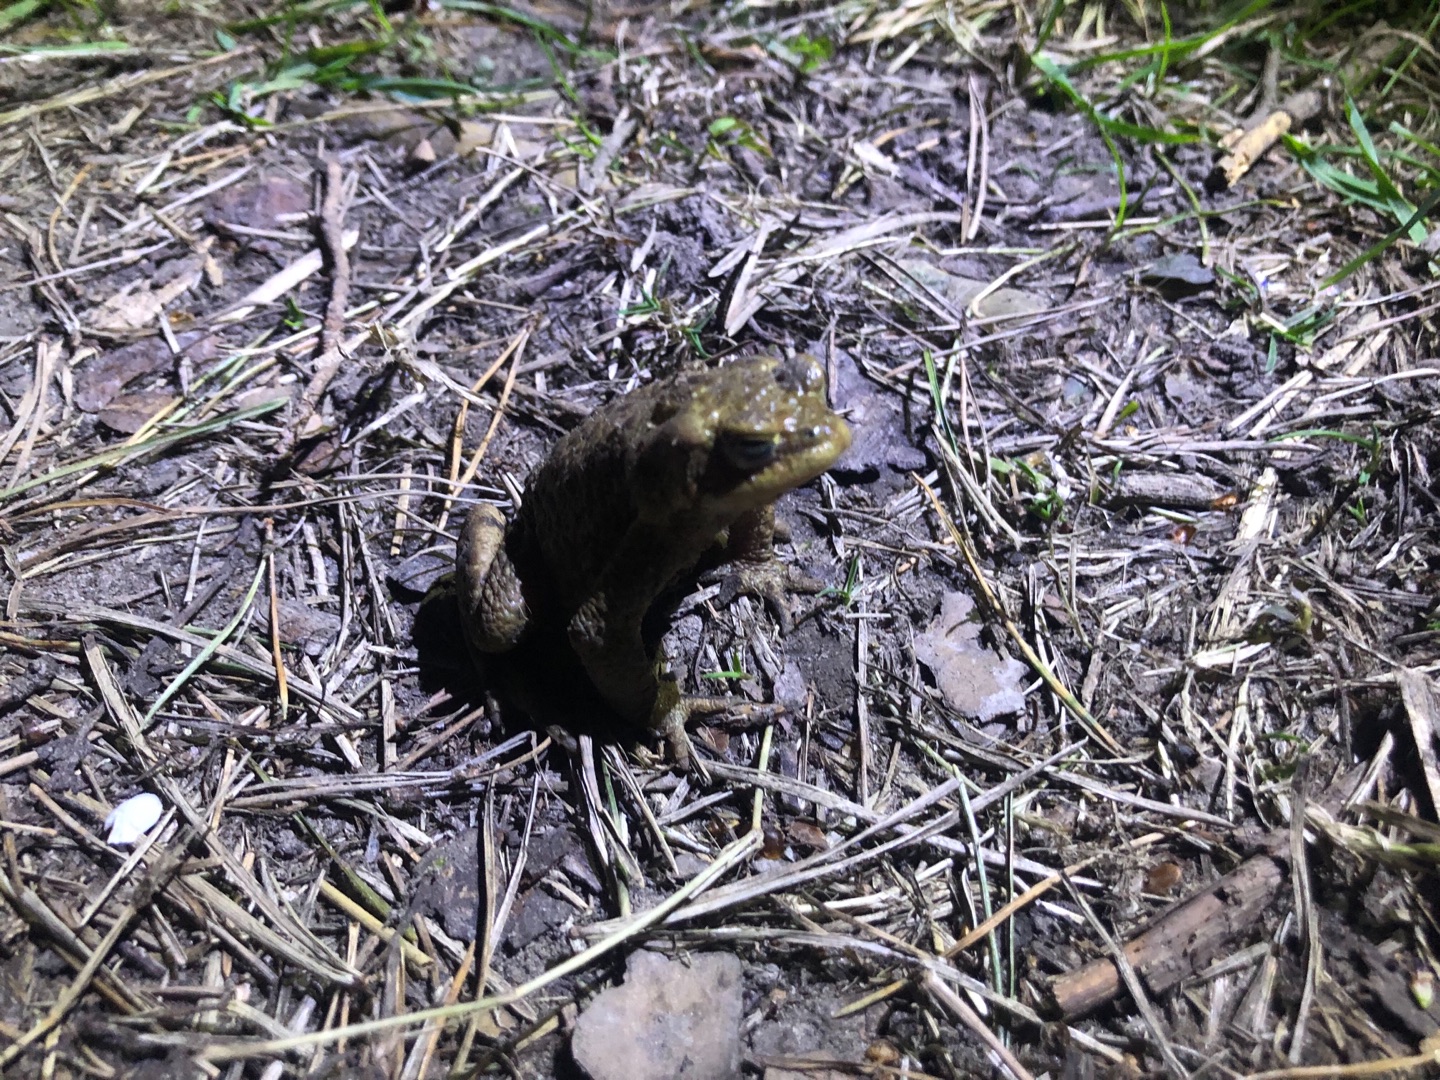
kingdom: Animalia
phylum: Chordata
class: Amphibia
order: Anura
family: Bufonidae
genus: Bufo
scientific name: Bufo bufo
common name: Skrubtudse
